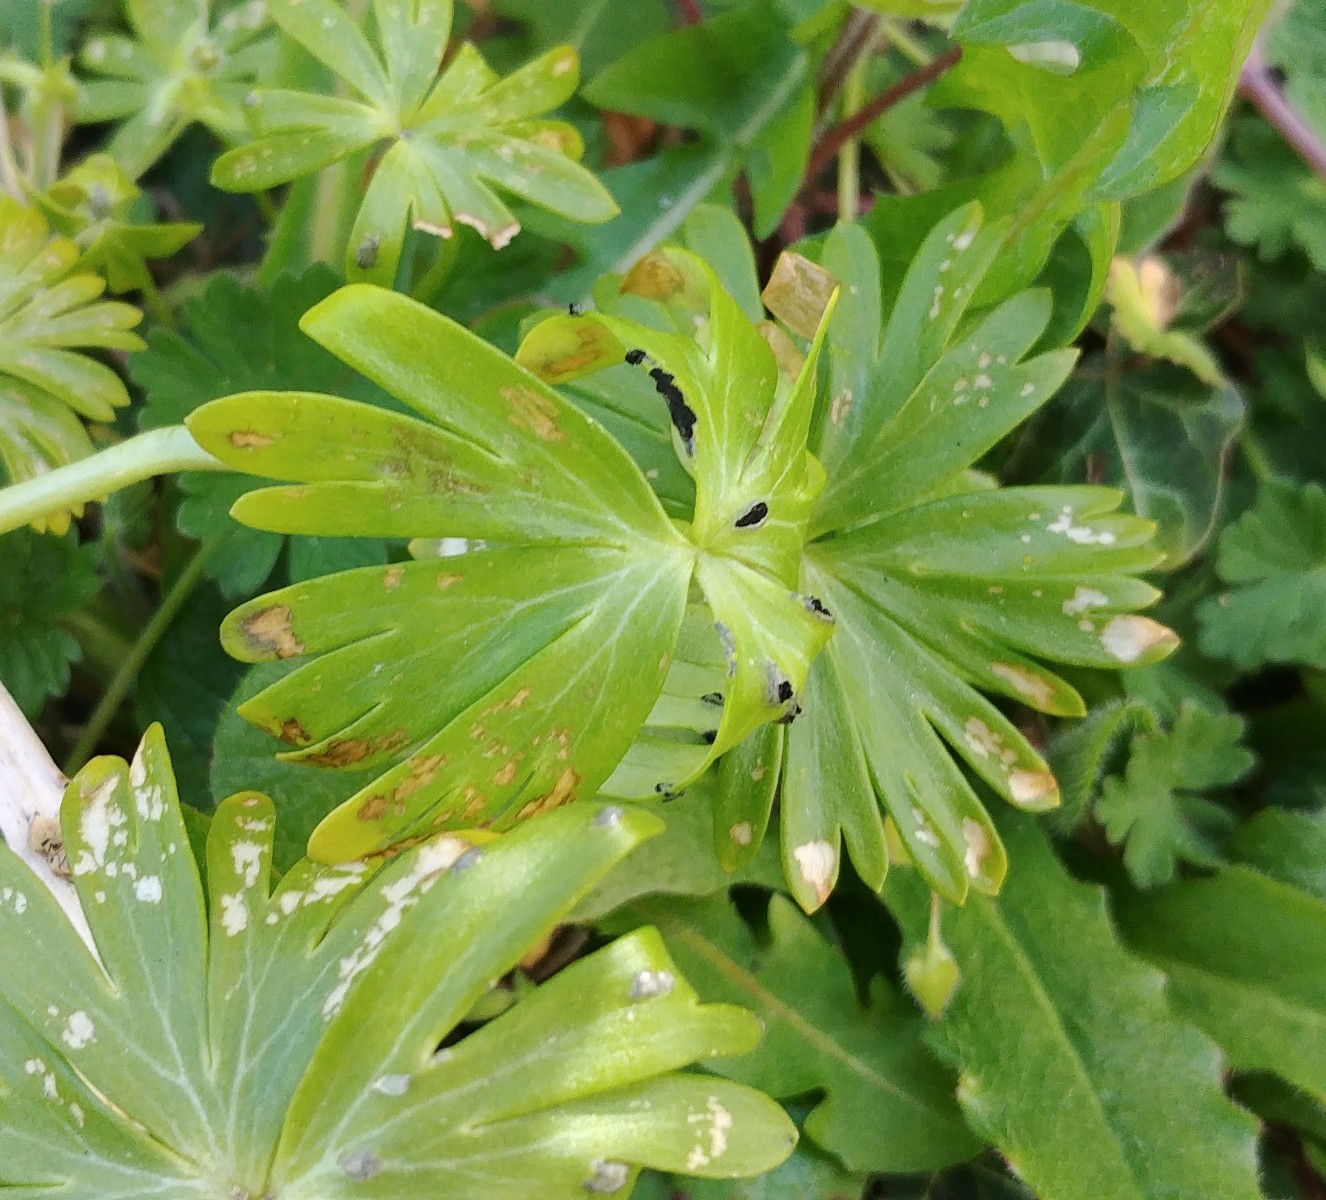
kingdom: Fungi
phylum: Basidiomycota
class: Ustilaginomycetes
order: Urocystidales
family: Urocystidaceae
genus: Urocystis
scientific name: Urocystis eranthidis
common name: erantis-brand
